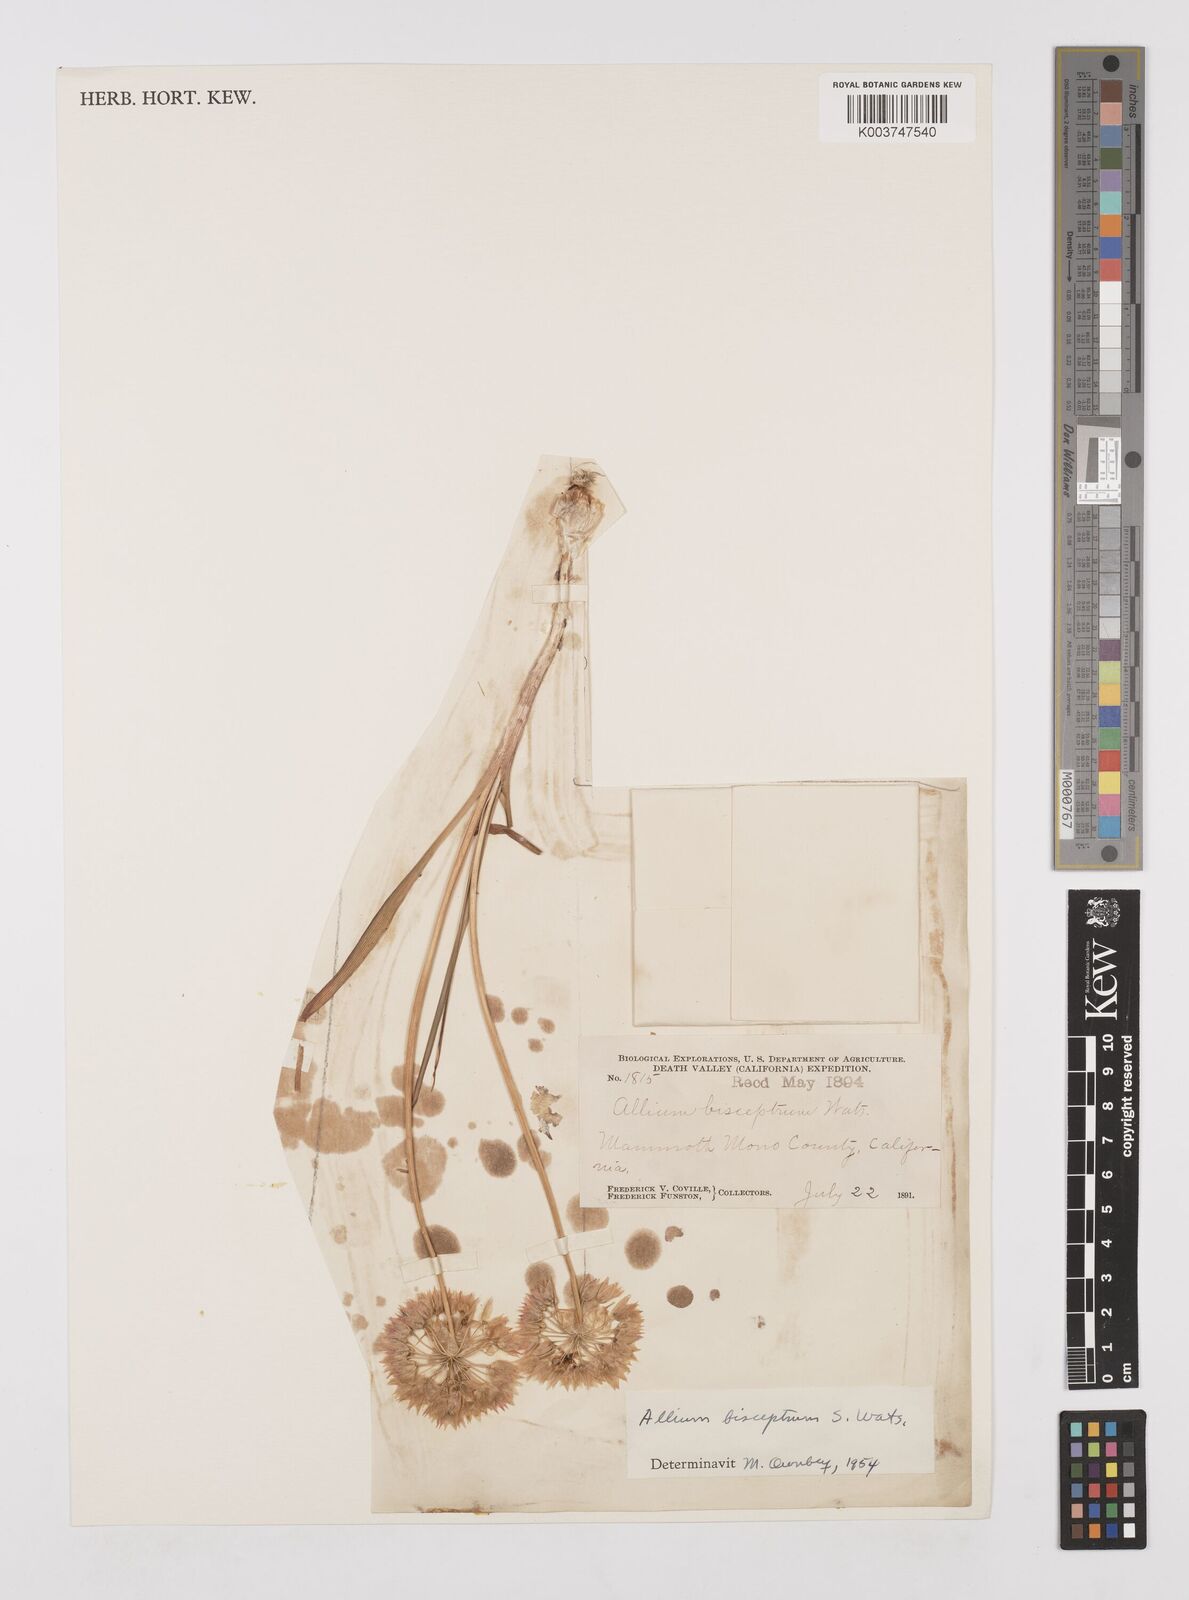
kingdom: Plantae
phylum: Tracheophyta
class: Liliopsida
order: Asparagales
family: Amaryllidaceae
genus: Allium
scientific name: Allium bisceptrum
